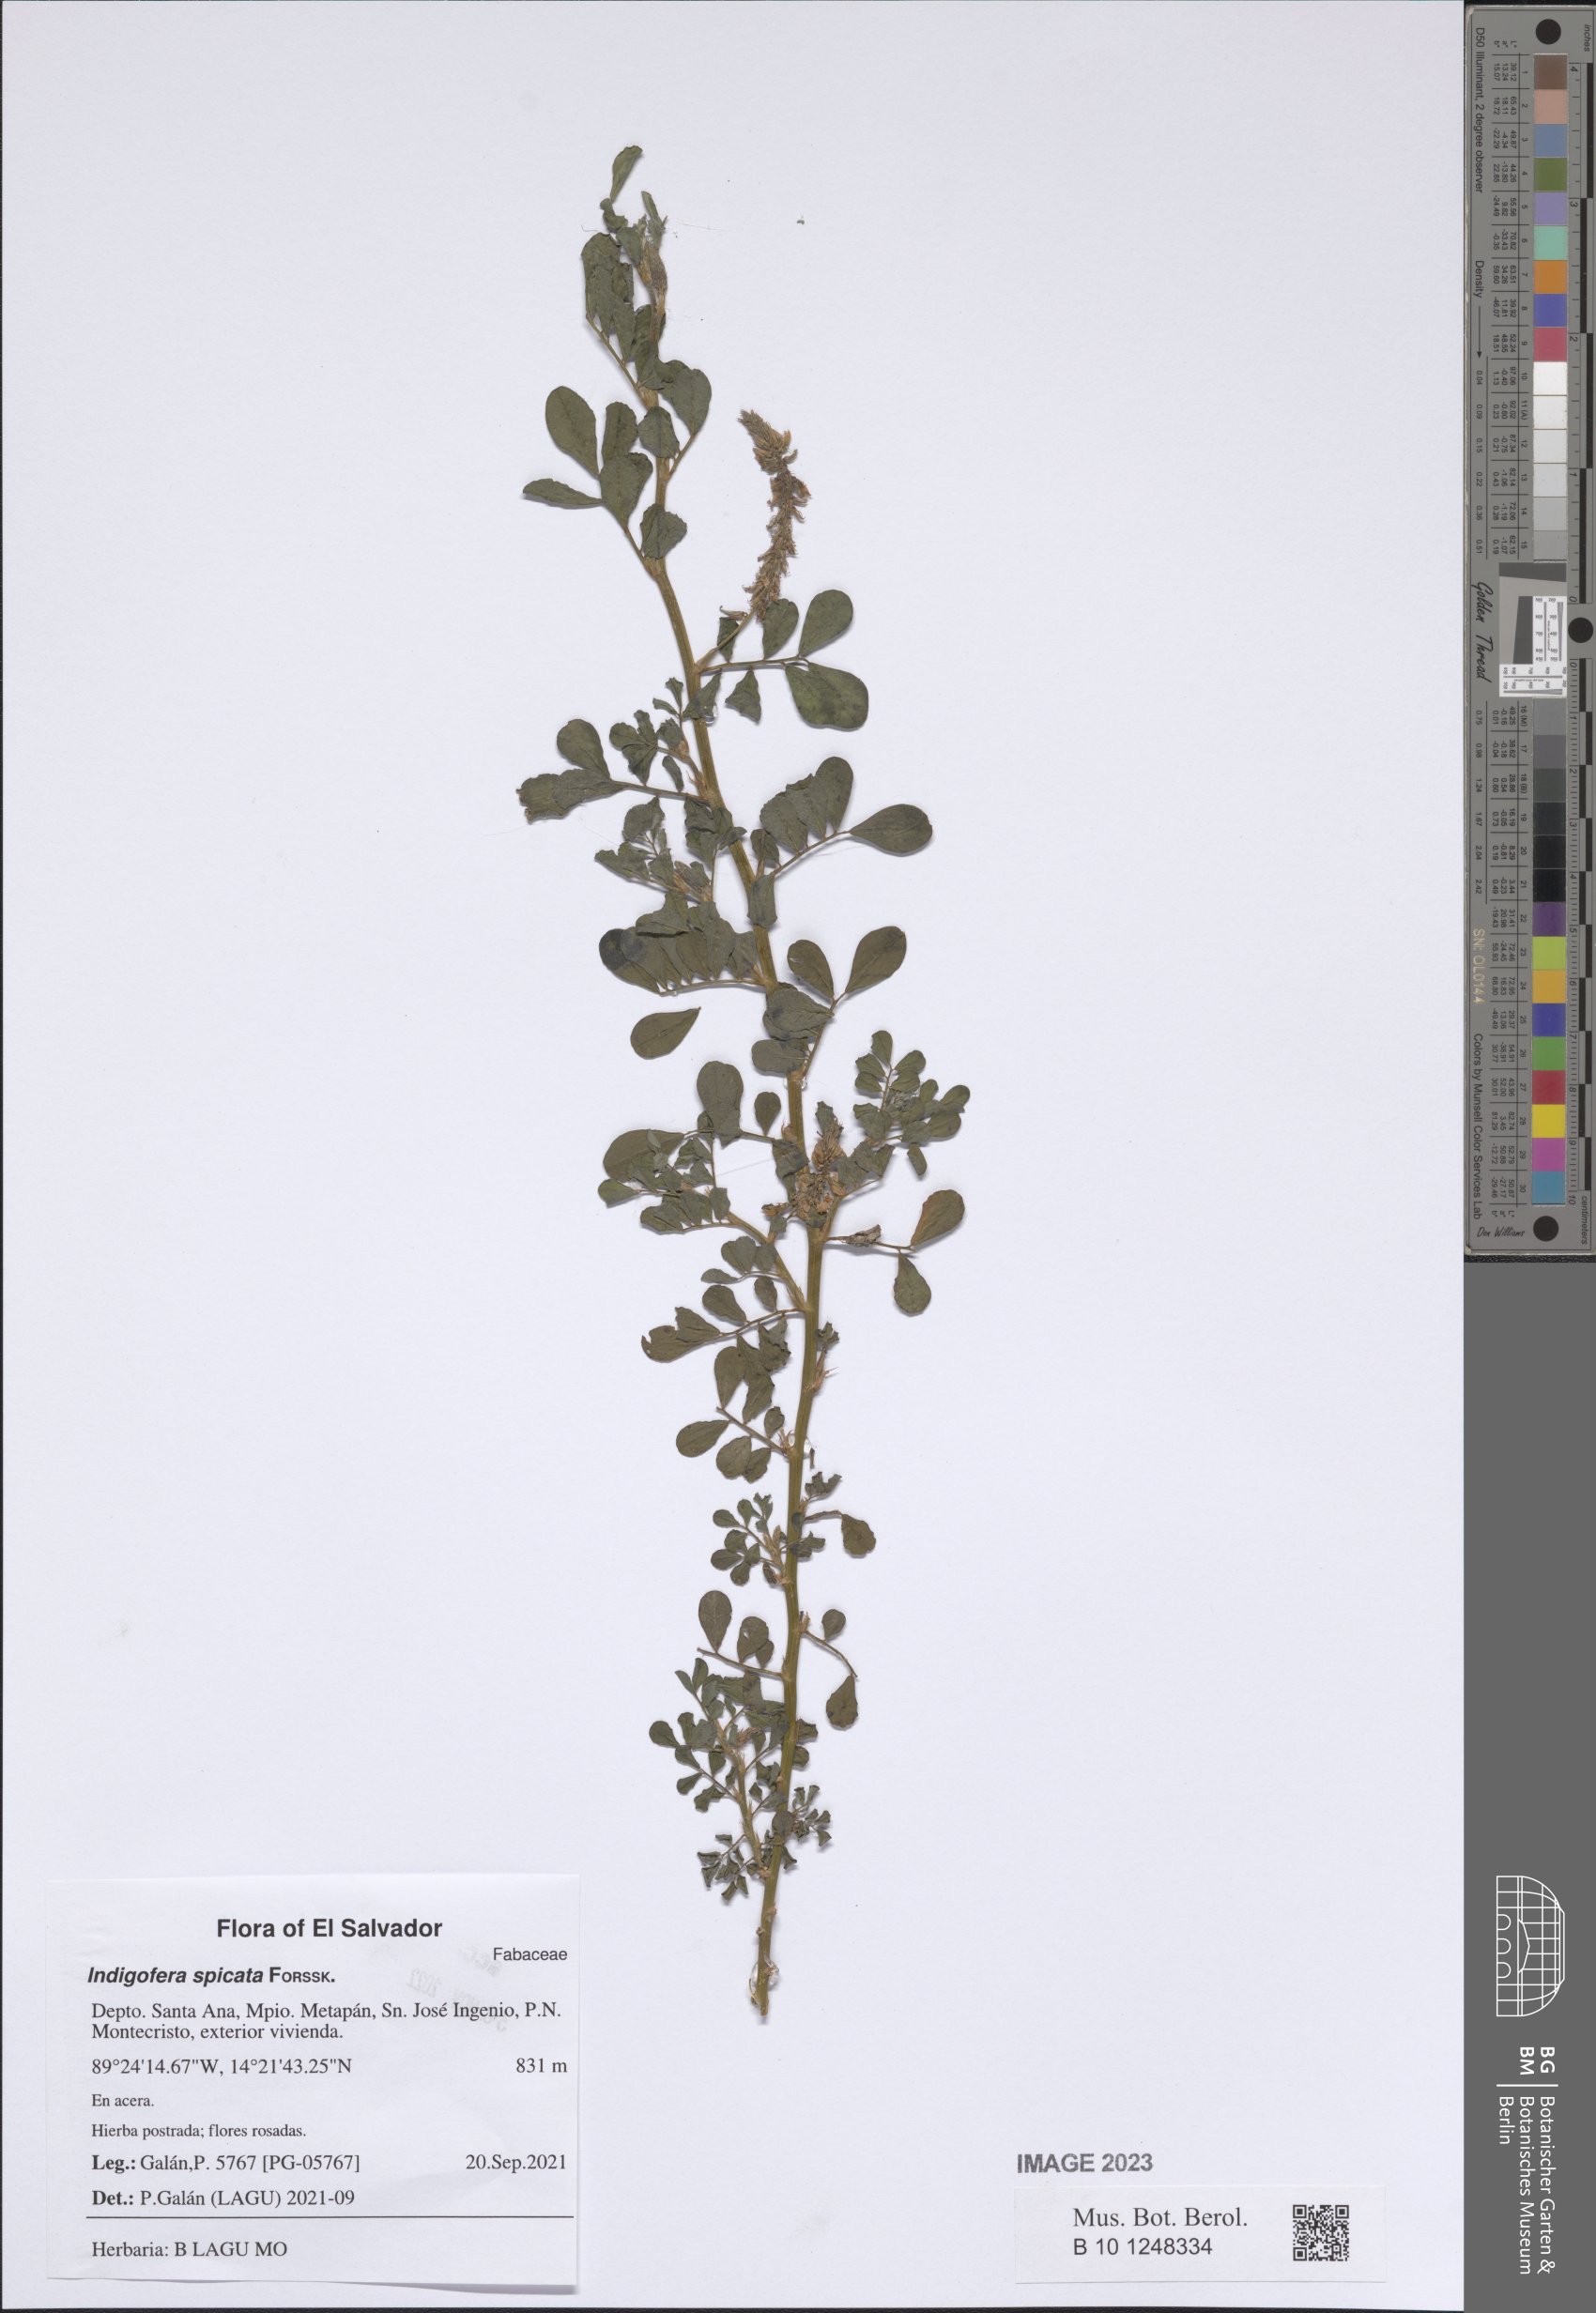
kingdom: Plantae
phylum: Tracheophyta
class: Magnoliopsida
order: Fabales
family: Fabaceae
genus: Indigofera
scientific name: Indigofera spicata
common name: Creeping indigo
